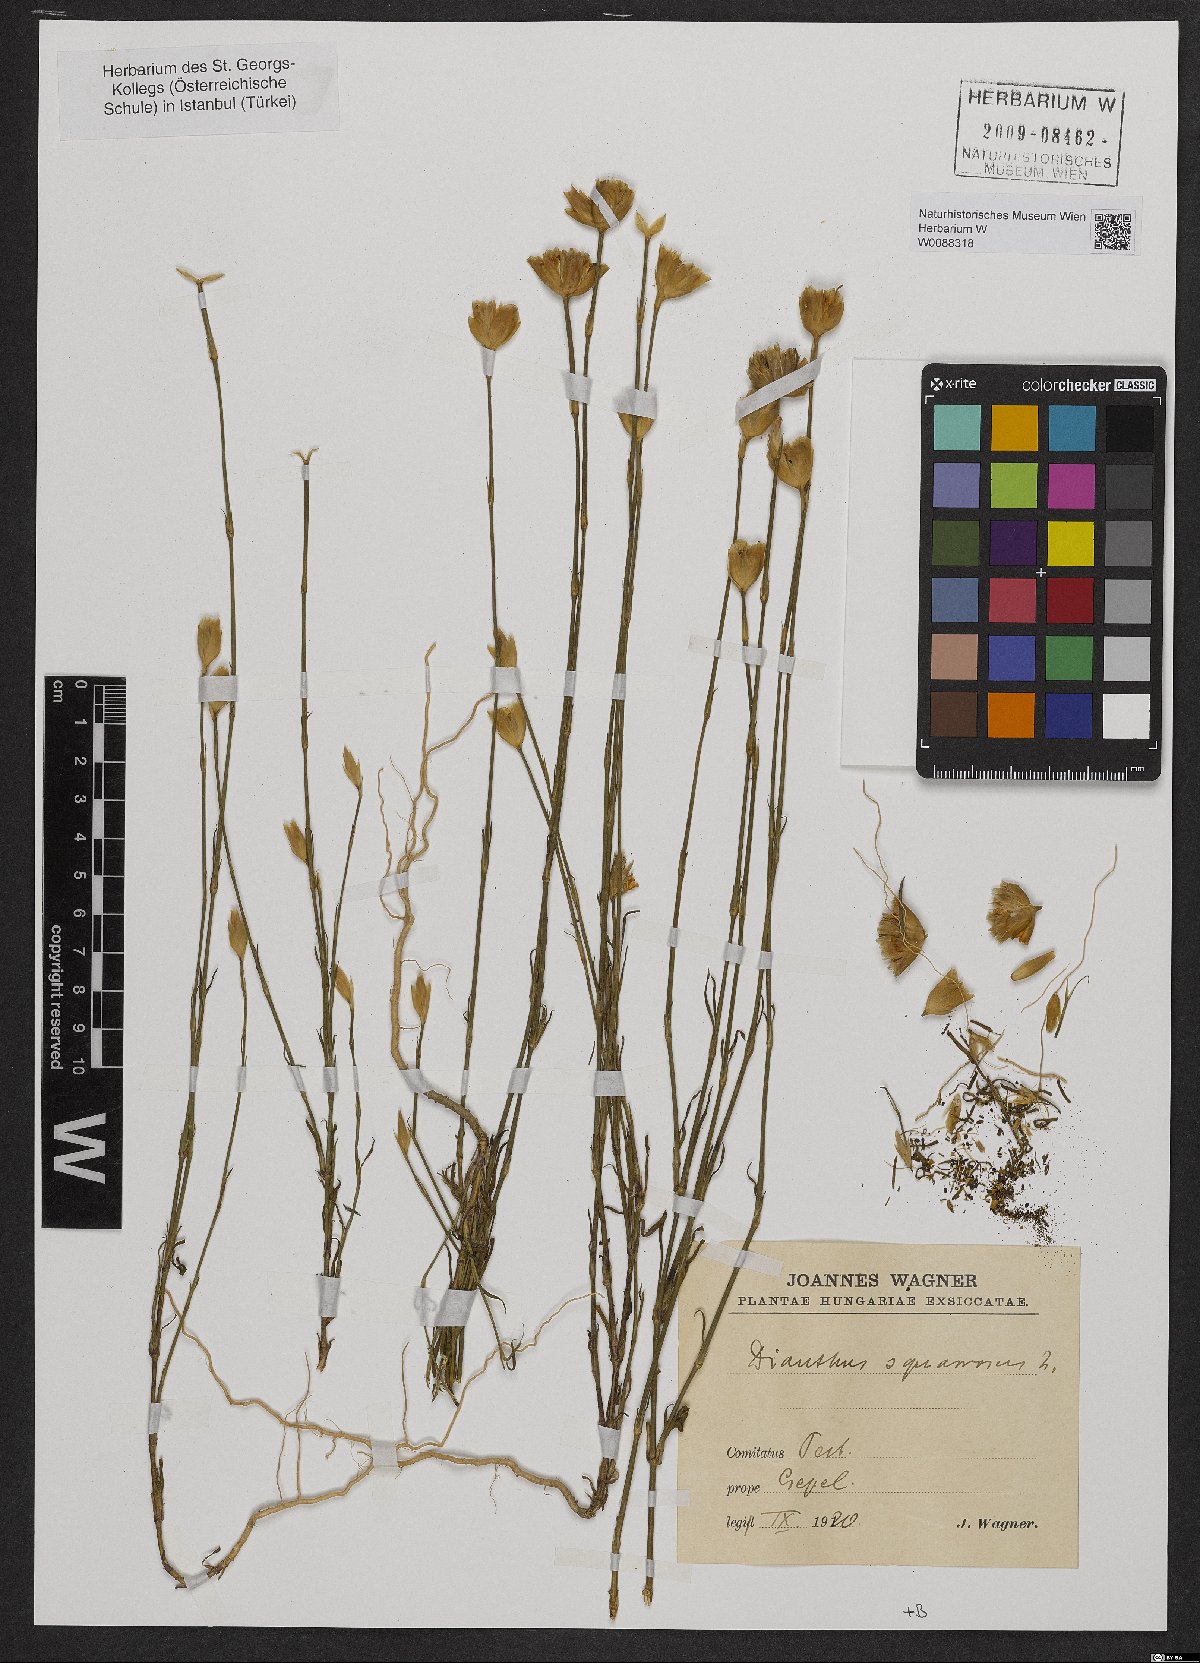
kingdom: Plantae
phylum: Tracheophyta
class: Magnoliopsida
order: Caryophyllales
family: Caryophyllaceae
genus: Petrorhagia
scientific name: Petrorhagia prolifera
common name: Proliferous pink
